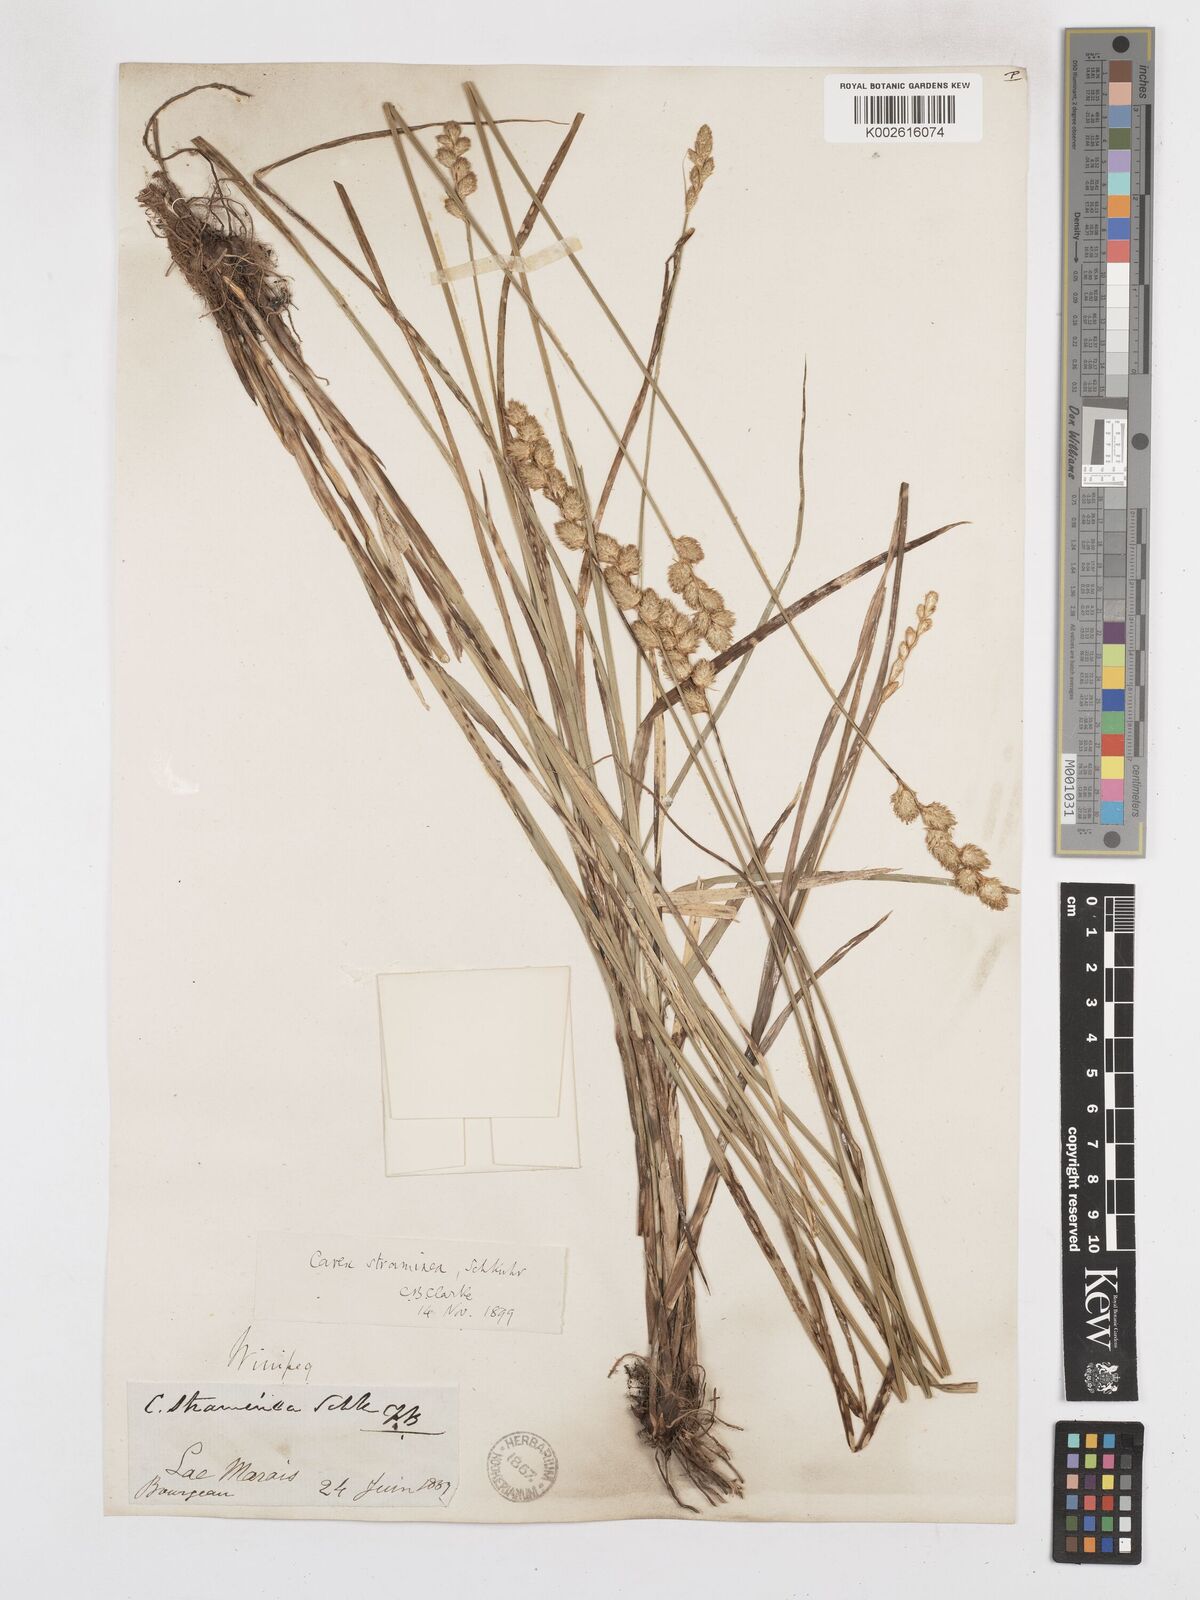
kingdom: Plantae
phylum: Tracheophyta
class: Liliopsida
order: Poales
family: Cyperaceae
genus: Carex
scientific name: Carex brevior
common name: Brevior sedge
